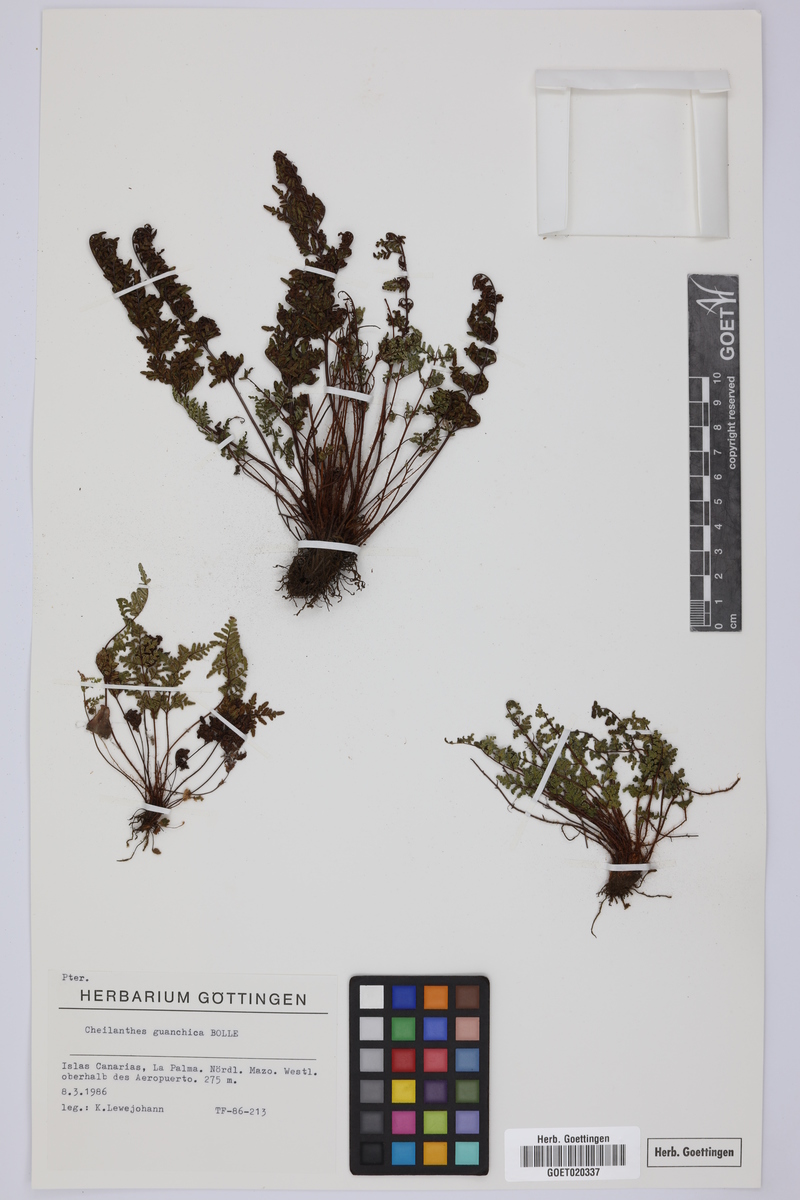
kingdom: Plantae
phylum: Tracheophyta
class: Polypodiopsida
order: Polypodiales
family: Pteridaceae
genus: Oeosporangium
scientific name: Oeosporangium guanchicum
